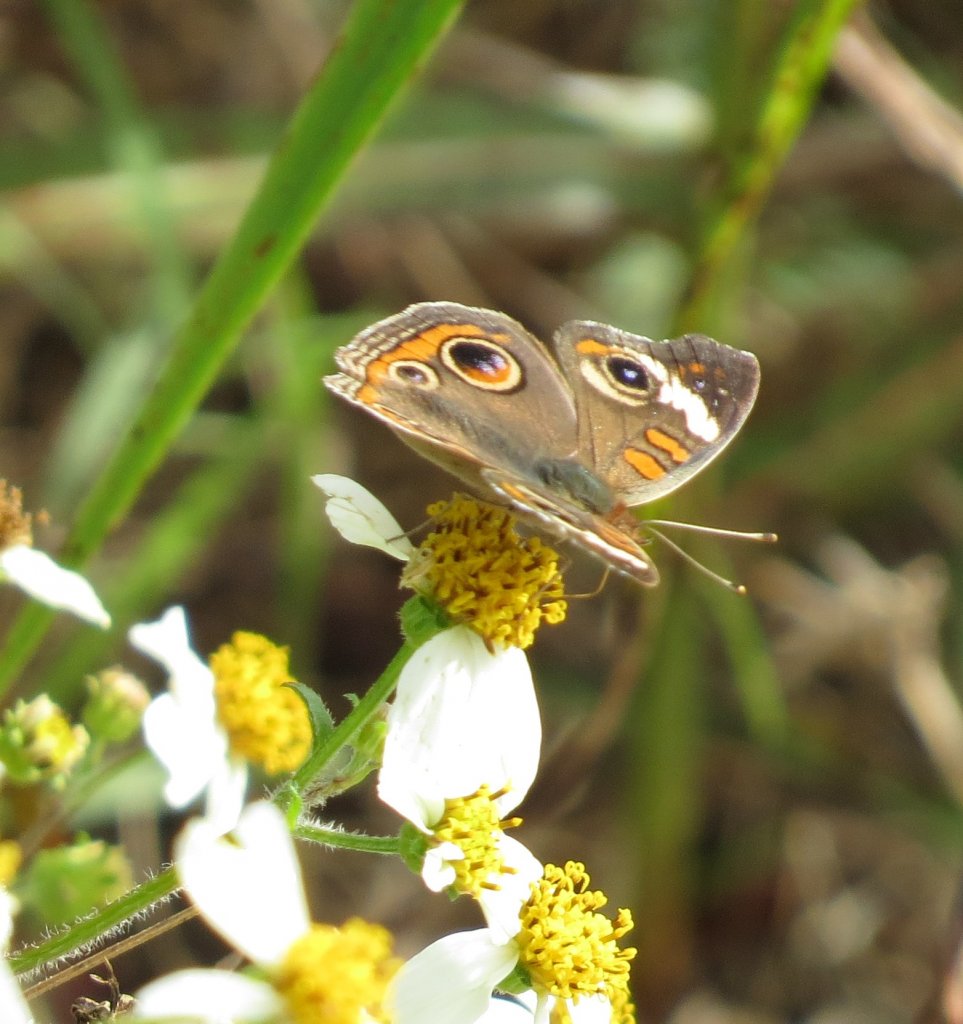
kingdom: Animalia
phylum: Arthropoda
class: Insecta
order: Lepidoptera
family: Nymphalidae
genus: Junonia
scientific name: Junonia coenia
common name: Common Buckeye
